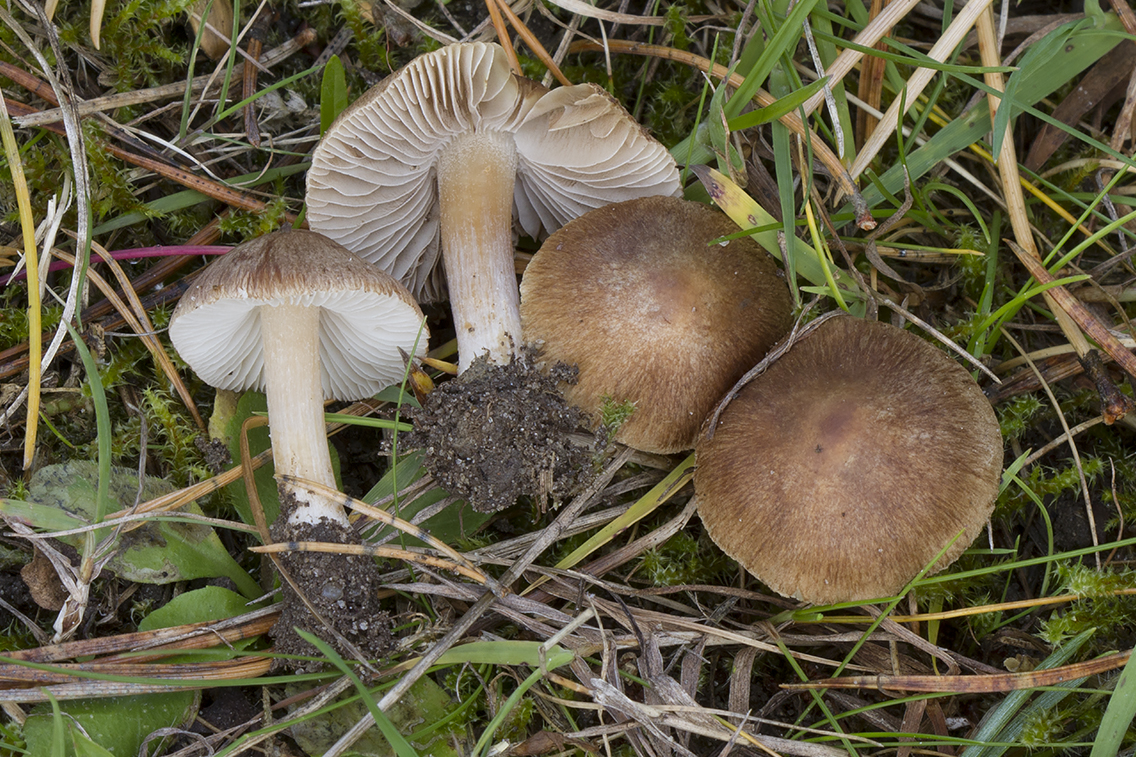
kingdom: Fungi
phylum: Basidiomycota
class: Agaricomycetes
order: Agaricales
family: Inocybaceae
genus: Inocybe
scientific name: Inocybe psammobrunnea
